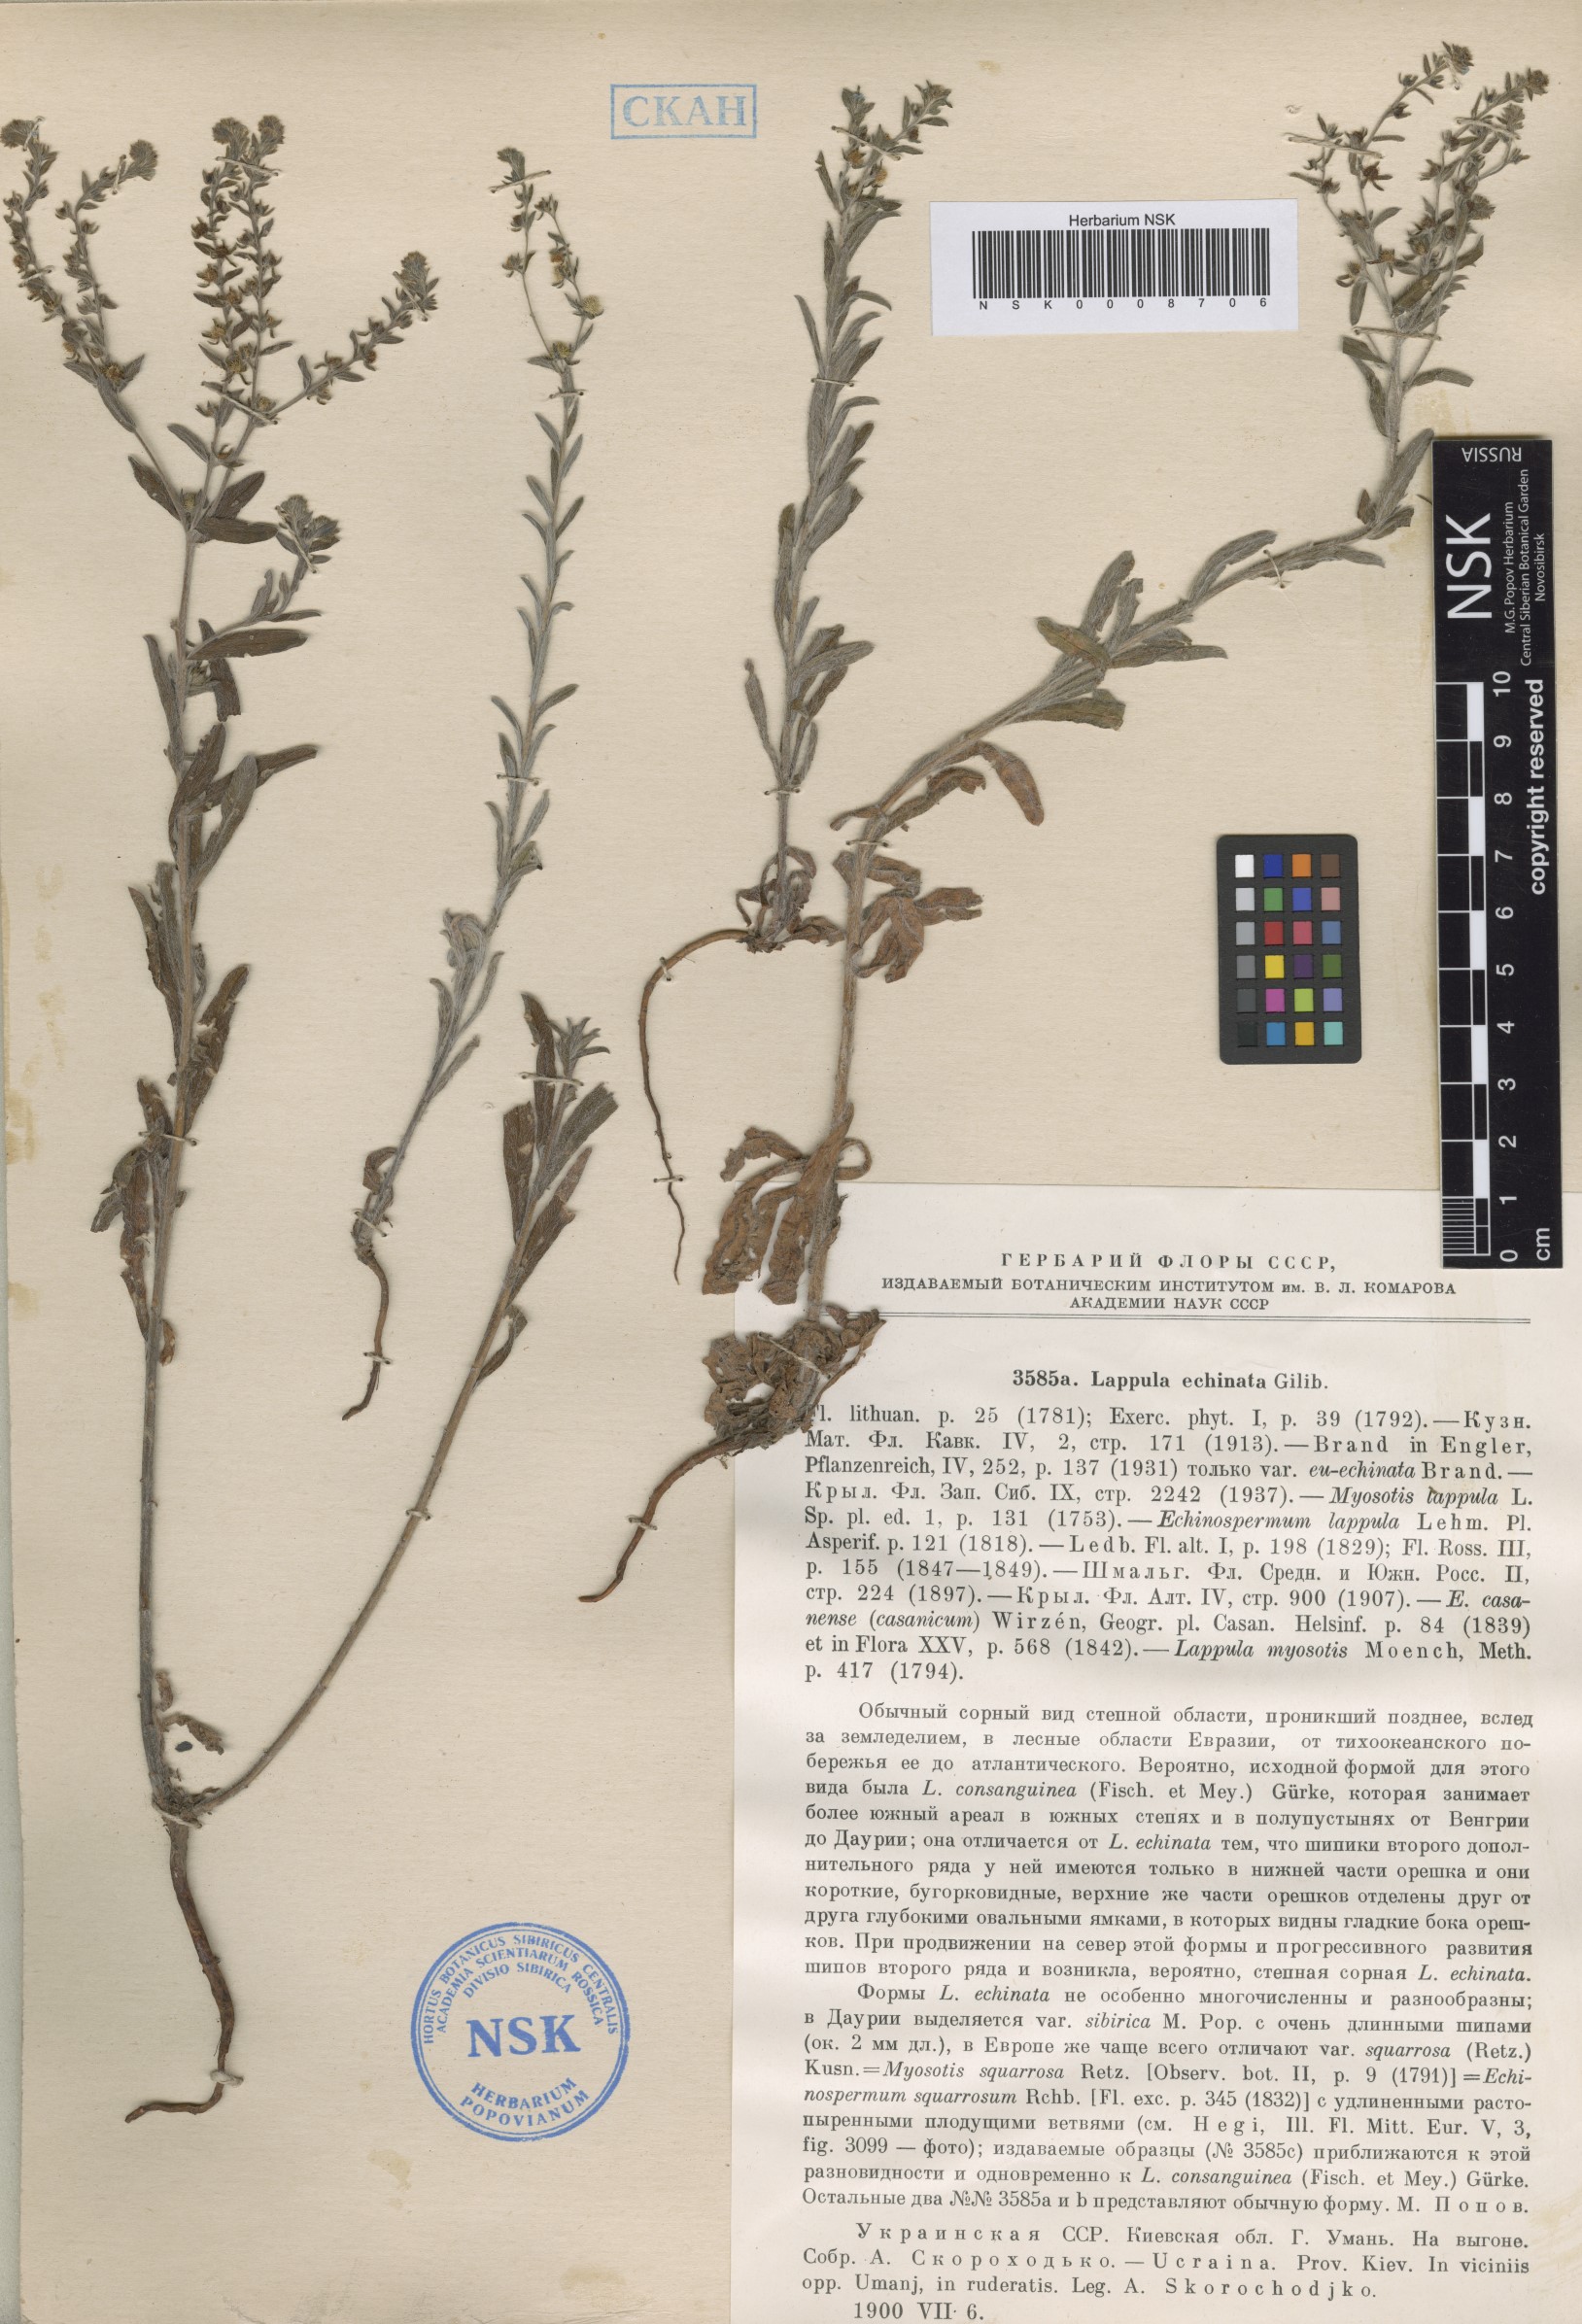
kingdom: Plantae
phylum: Tracheophyta
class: Magnoliopsida
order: Boraginales
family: Boraginaceae
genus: Lappula
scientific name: Lappula squarrosa
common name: European stickseed
